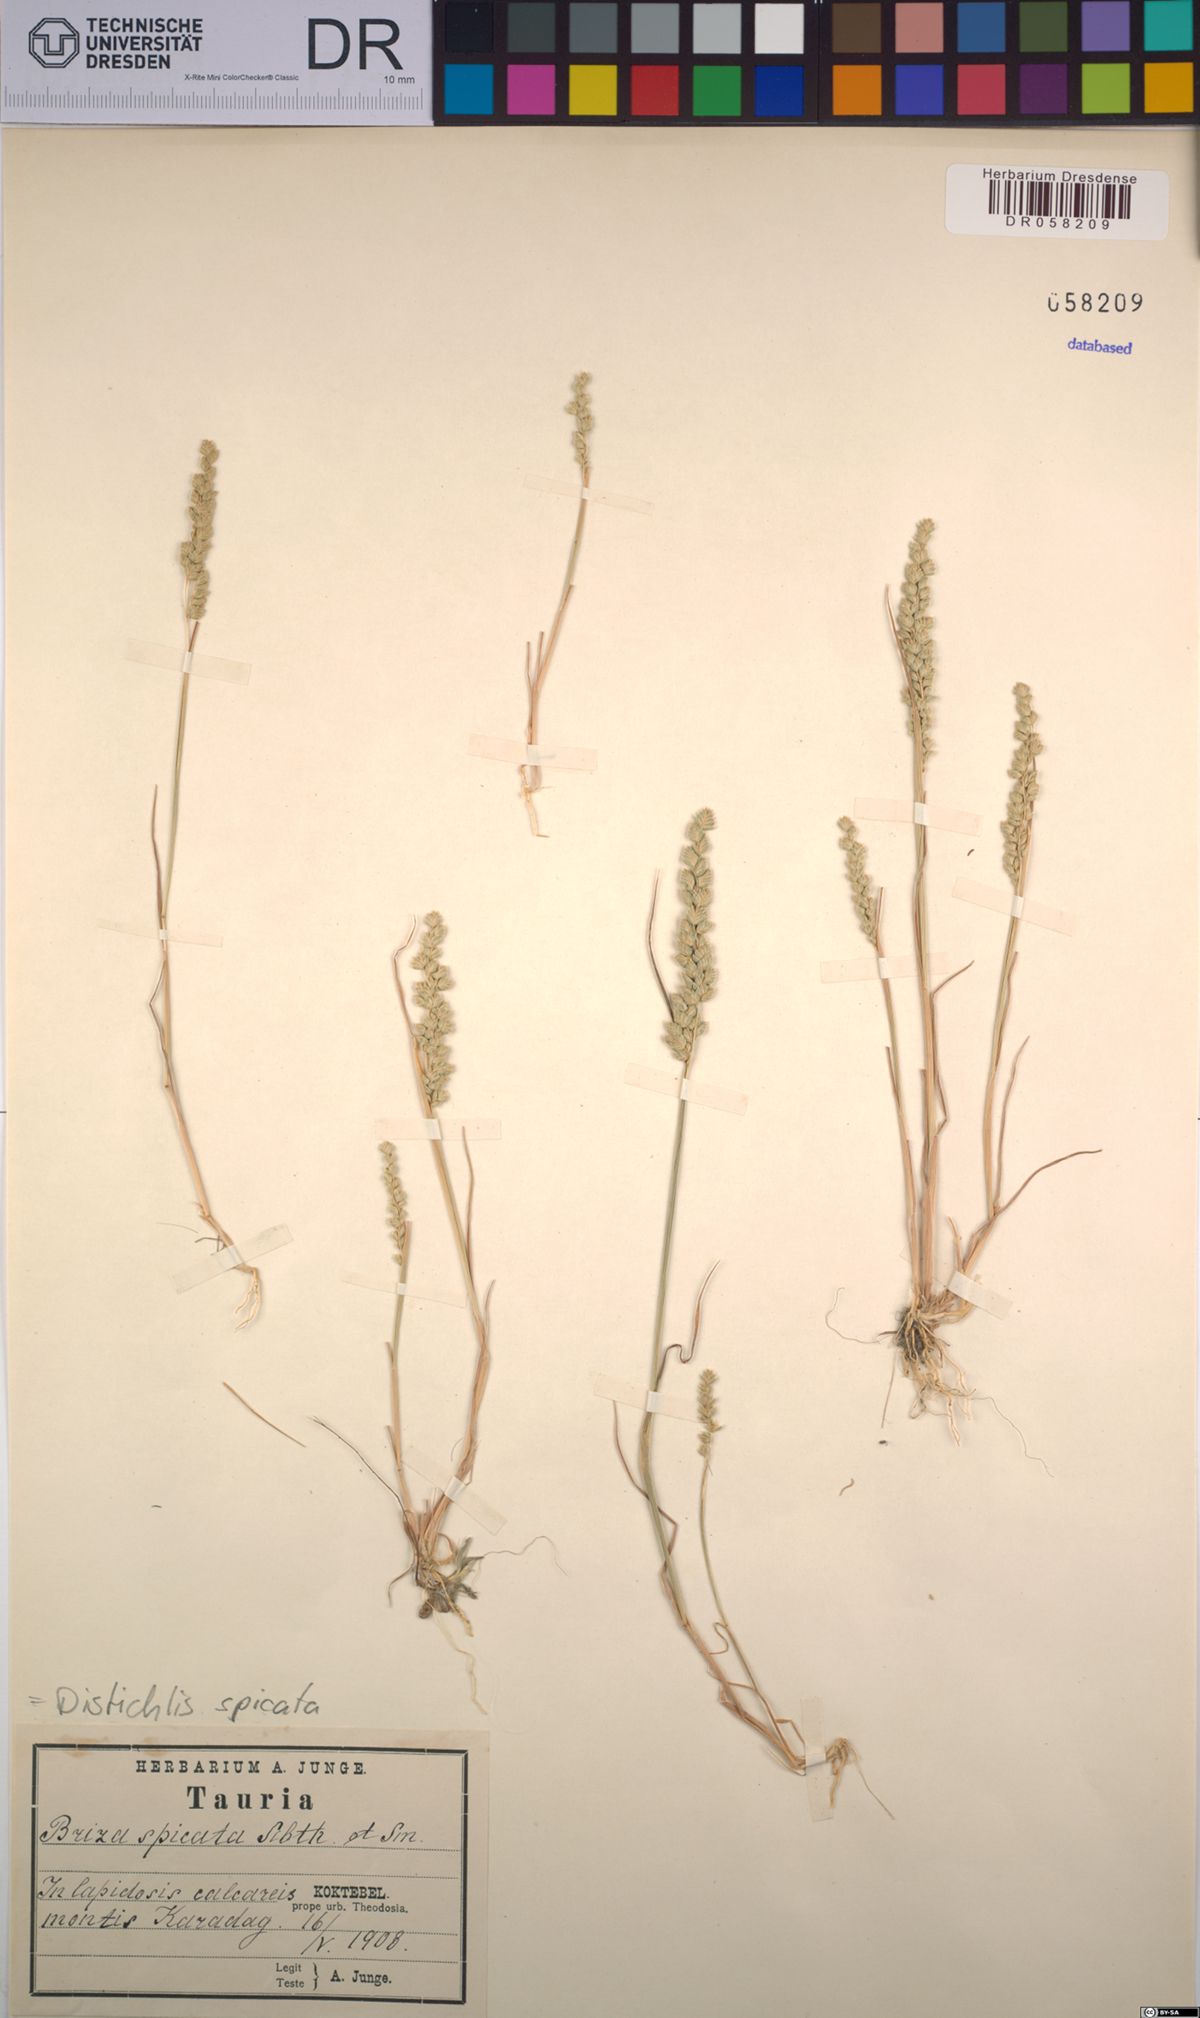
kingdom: Plantae
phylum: Tracheophyta
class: Liliopsida
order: Poales
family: Poaceae
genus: Distichlis
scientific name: Distichlis spicata
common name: Saltgrass
